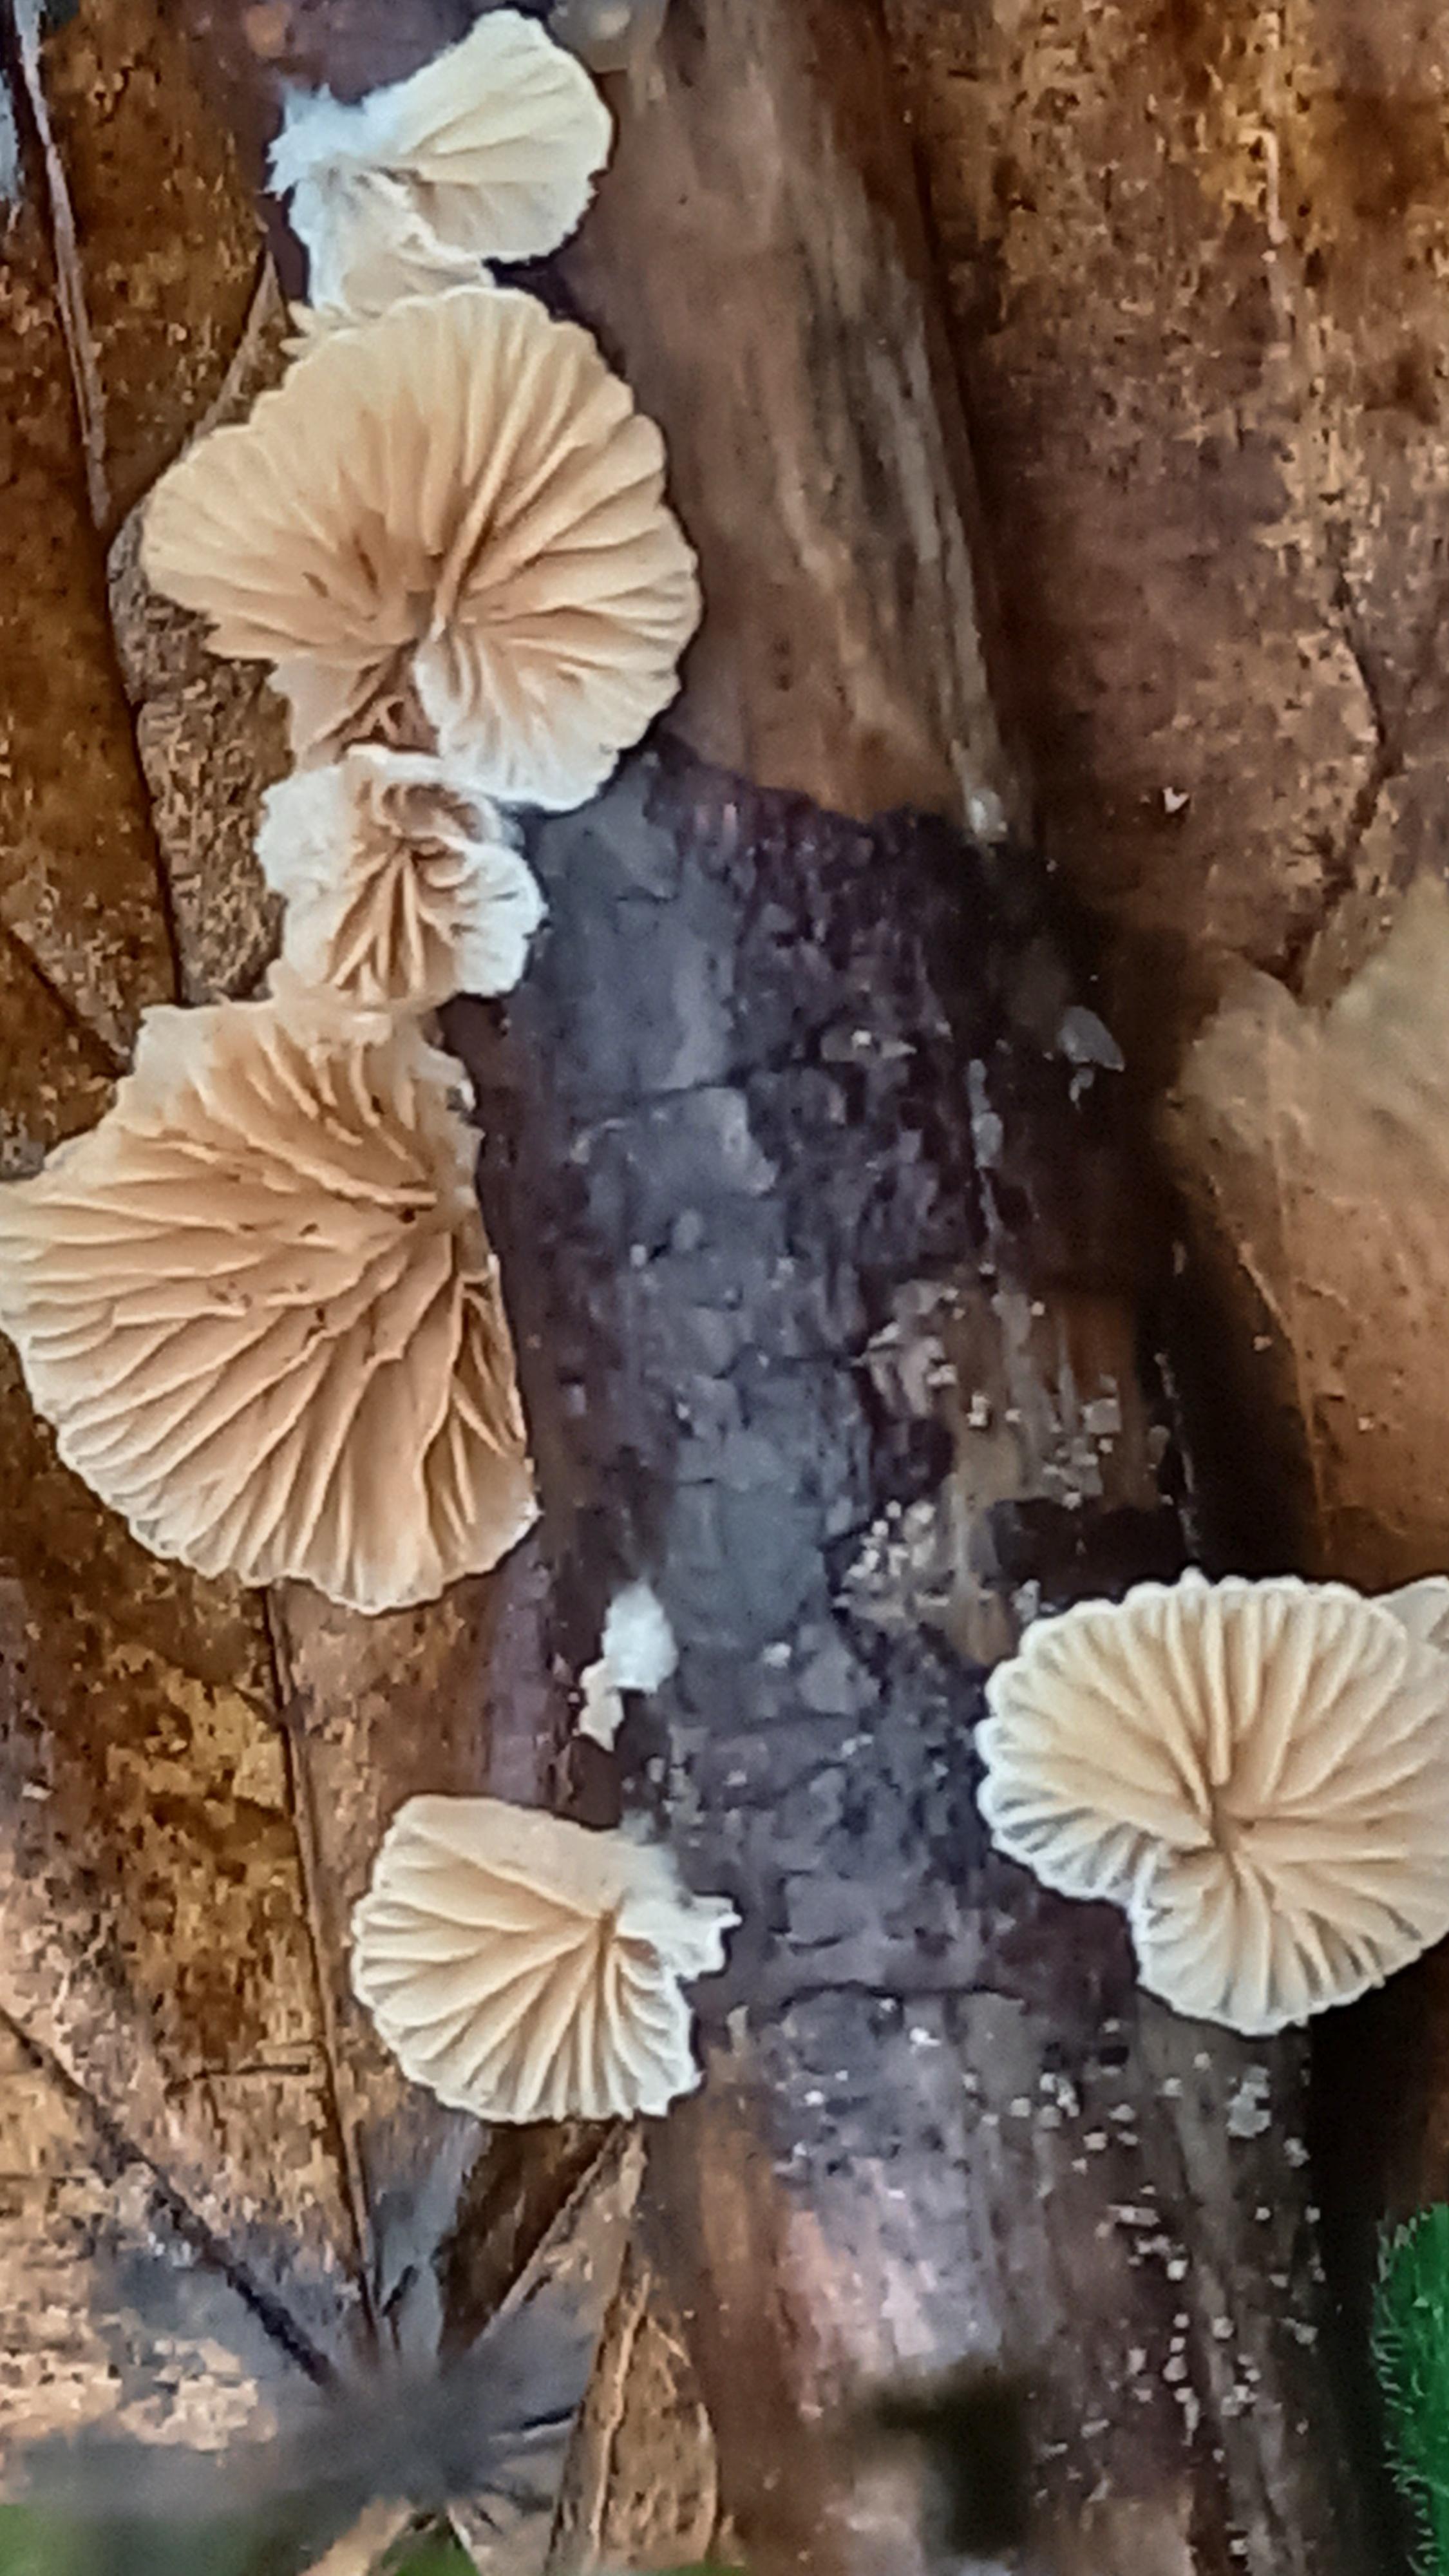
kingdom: Fungi
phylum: Basidiomycota
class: Agaricomycetes
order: Agaricales
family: Crepidotaceae
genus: Crepidotus
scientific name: Crepidotus cesatii
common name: almindelig muslingesvamp
